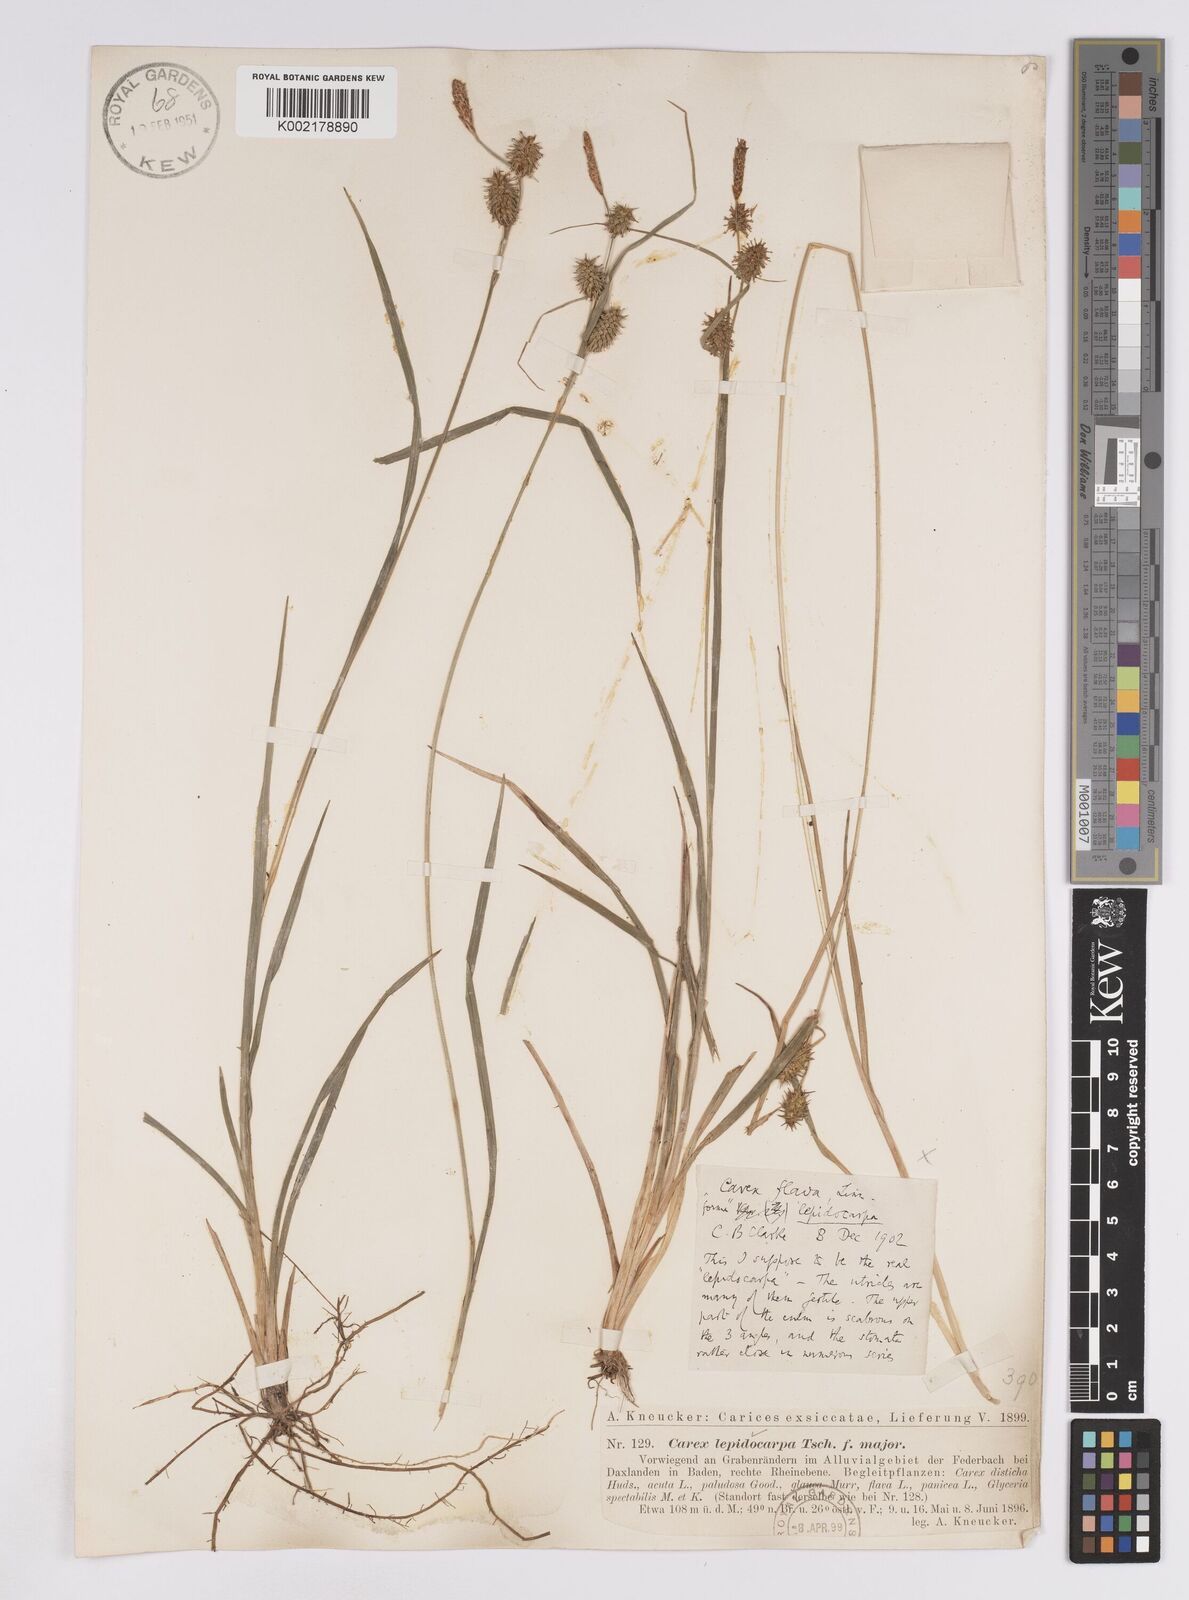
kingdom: Plantae
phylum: Tracheophyta
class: Liliopsida
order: Poales
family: Cyperaceae
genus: Carex
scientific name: Carex lepidocarpa
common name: Long-stalked yellow-sedge
